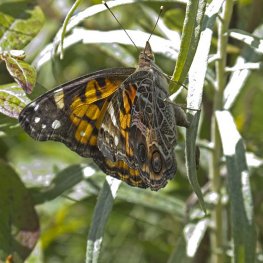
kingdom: Animalia
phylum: Arthropoda
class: Insecta
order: Lepidoptera
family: Nymphalidae
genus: Vanessa
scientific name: Vanessa virginiensis
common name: American Lady
